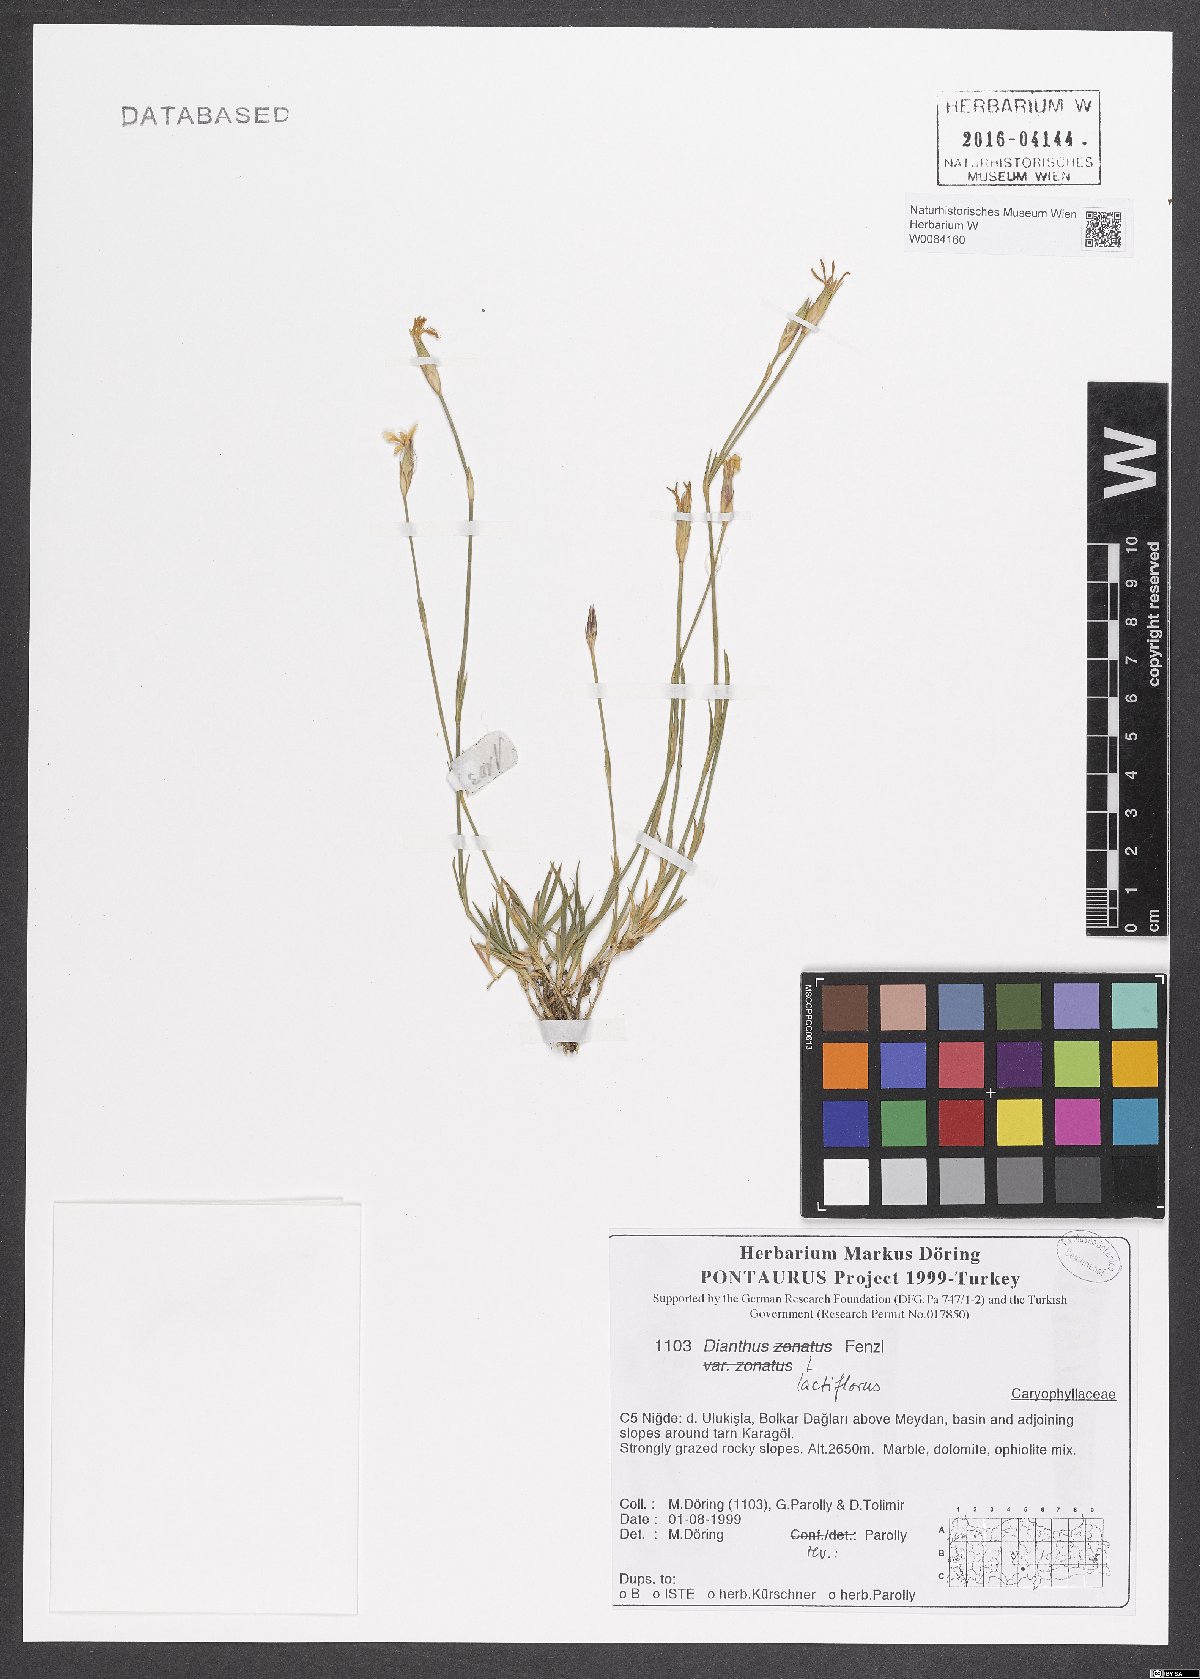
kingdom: Plantae
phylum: Tracheophyta
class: Magnoliopsida
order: Caryophyllales
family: Caryophyllaceae
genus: Dianthus
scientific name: Dianthus lactiflorus
